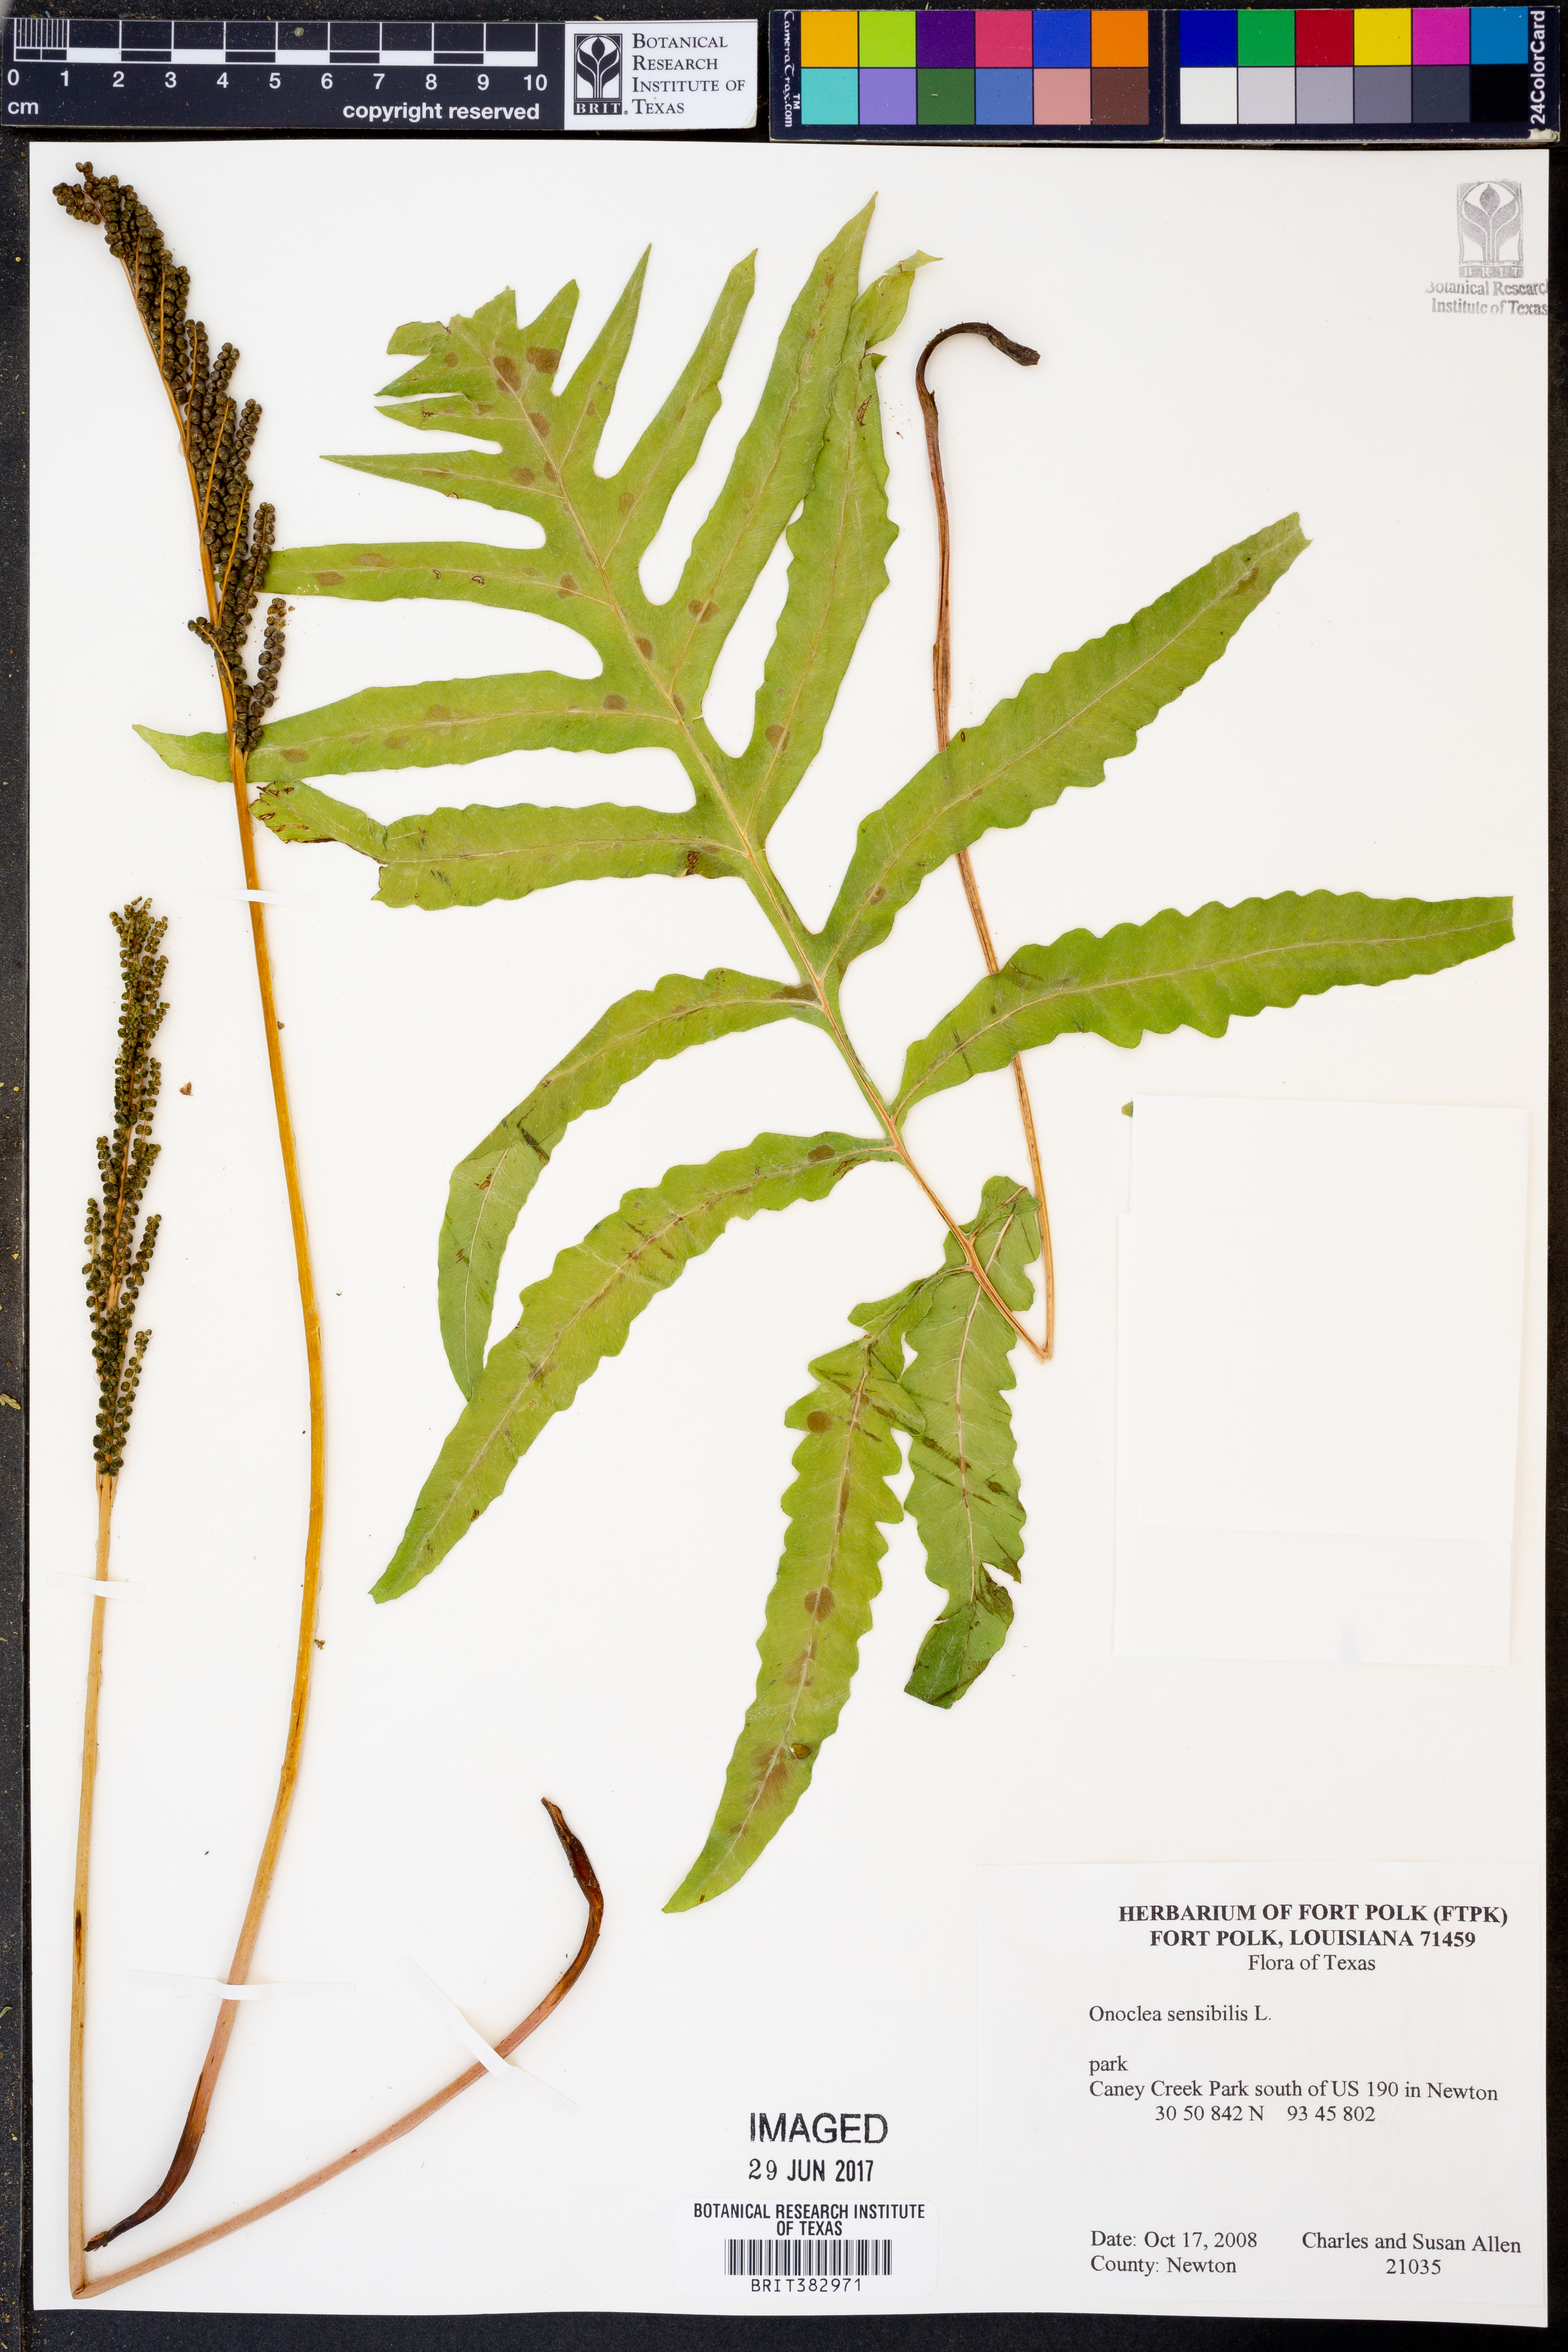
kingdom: Plantae
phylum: Tracheophyta
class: Polypodiopsida
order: Polypodiales
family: Onocleaceae
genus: Onoclea
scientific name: Onoclea sensibilis
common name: Sensitive fern
